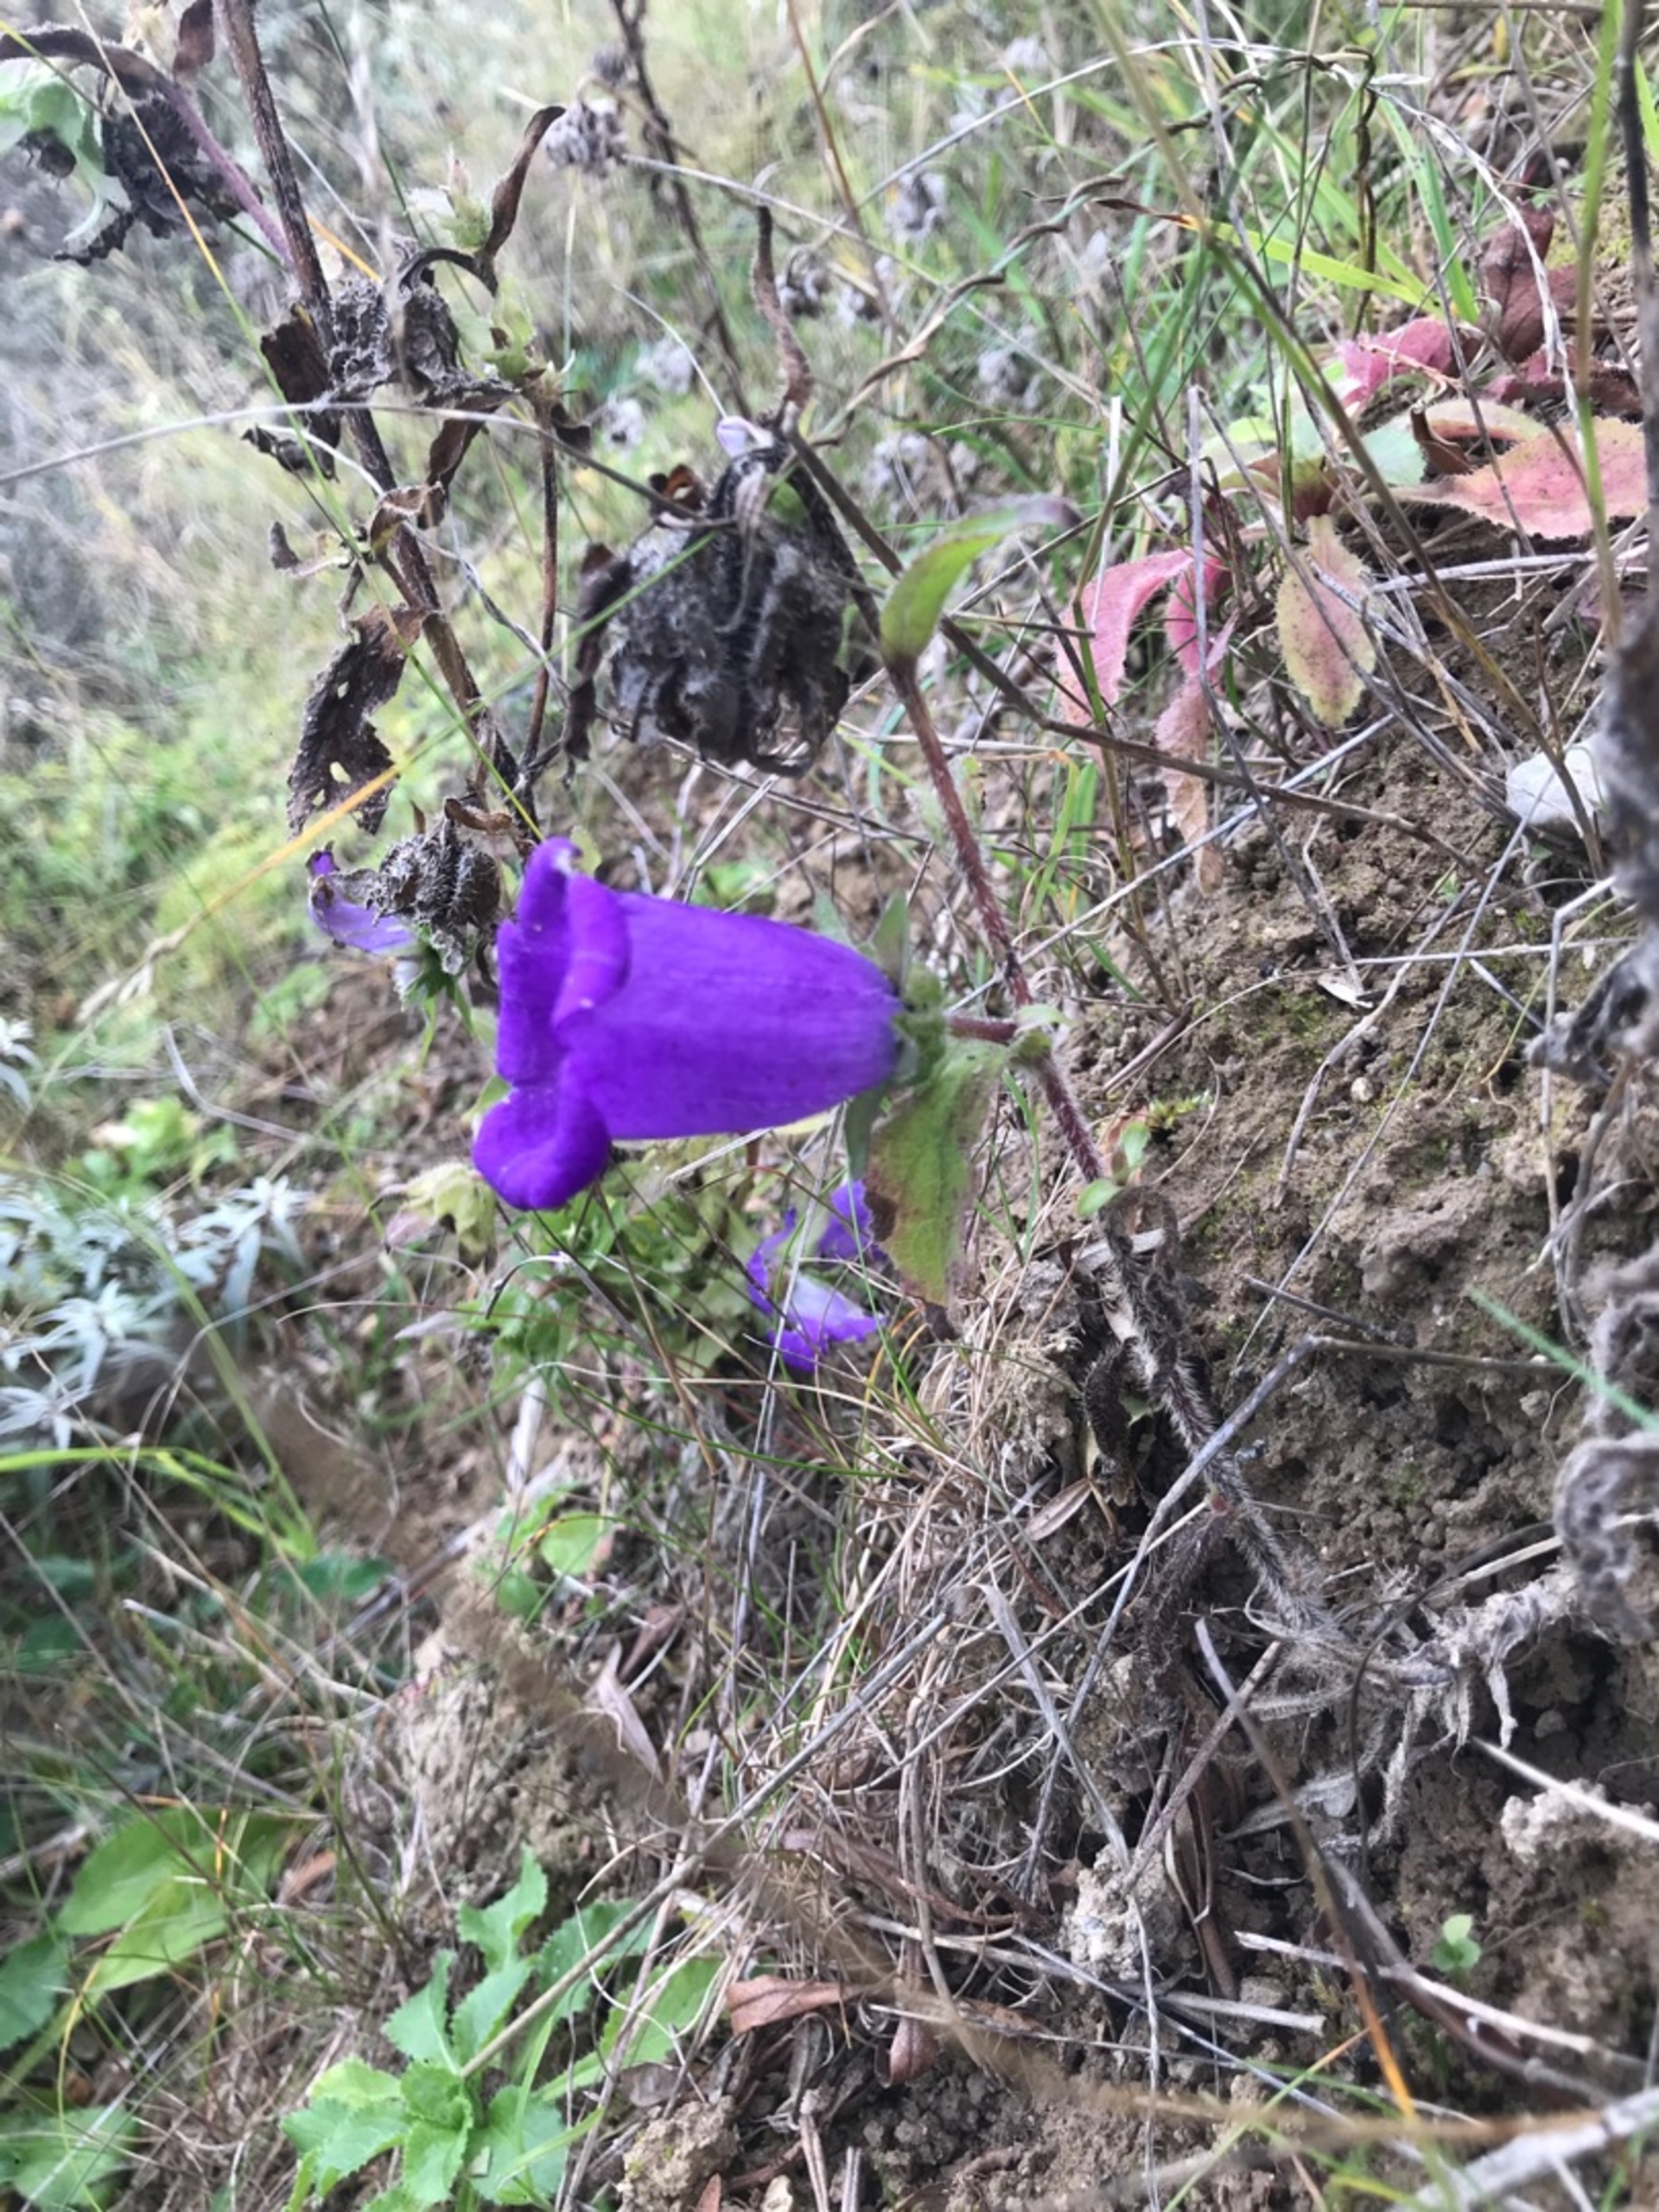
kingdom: Plantae
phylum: Tracheophyta
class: Magnoliopsida
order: Asterales
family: Campanulaceae
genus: Campanula
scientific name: Campanula medium
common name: Marie-klokke
